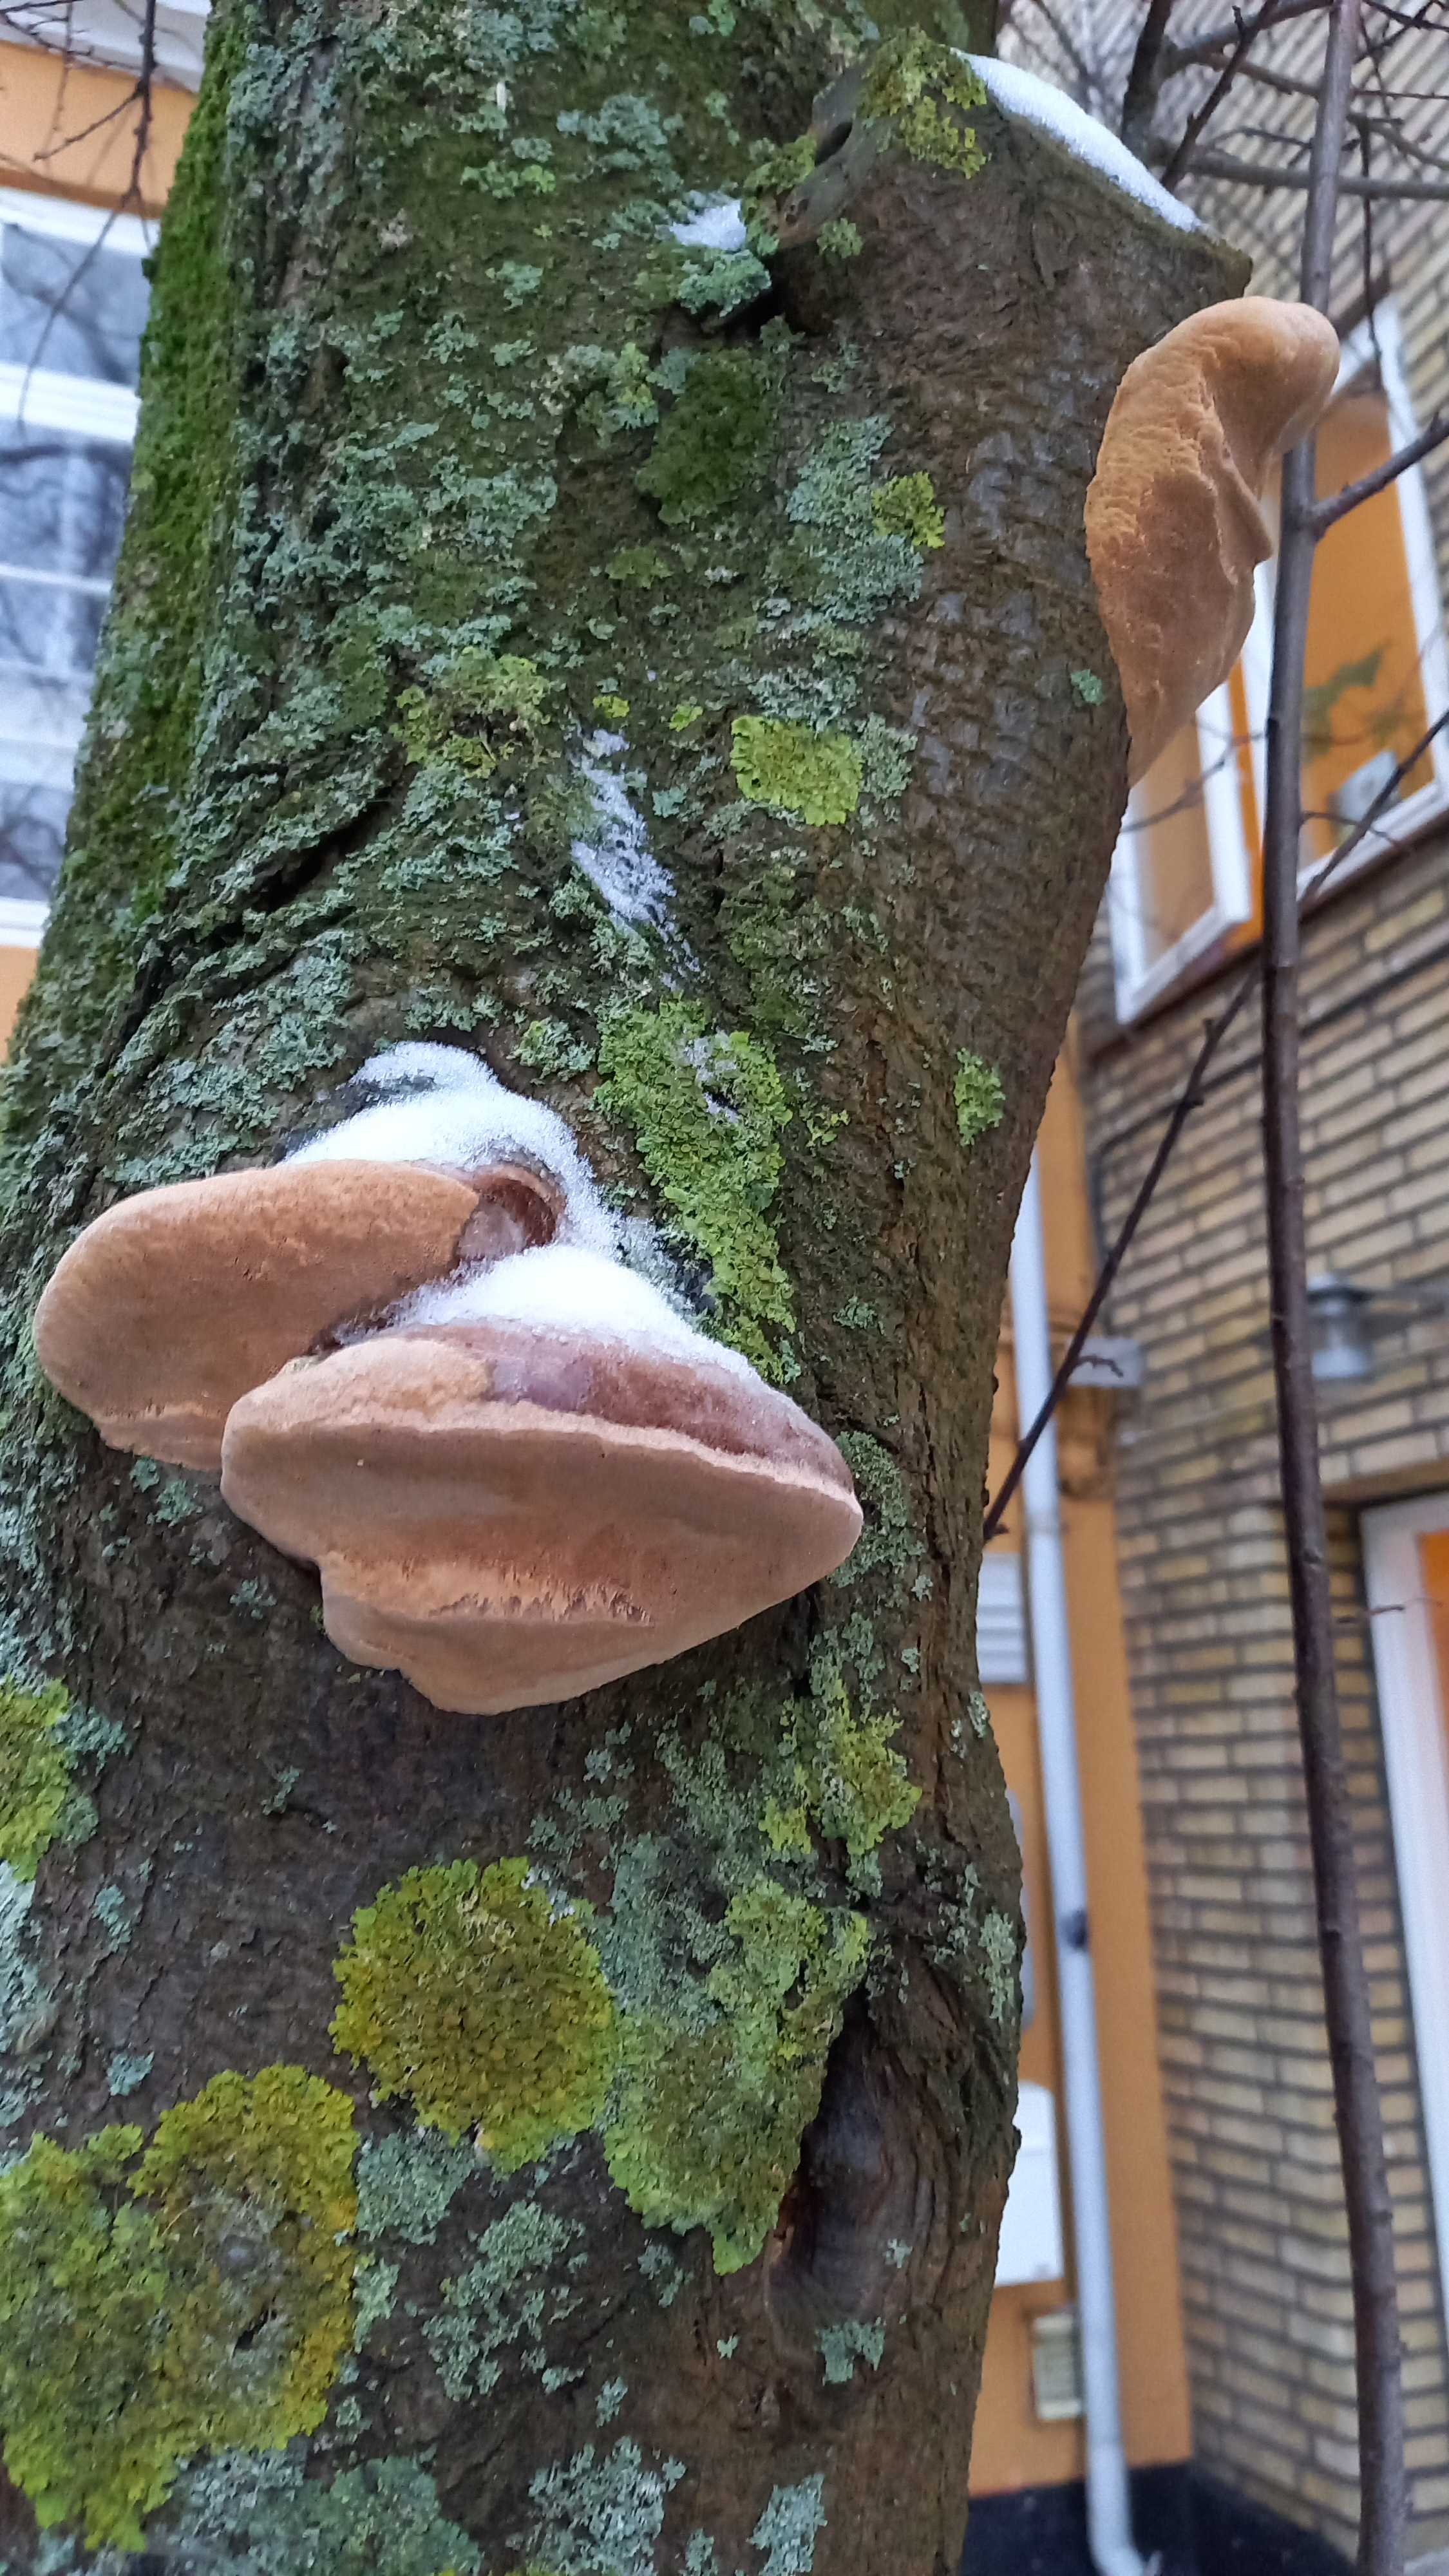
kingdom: Fungi
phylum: Basidiomycota
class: Agaricomycetes
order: Hymenochaetales
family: Hymenochaetaceae
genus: Phellinus
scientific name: Phellinus pomaceus
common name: blomme-ildporesvamp
